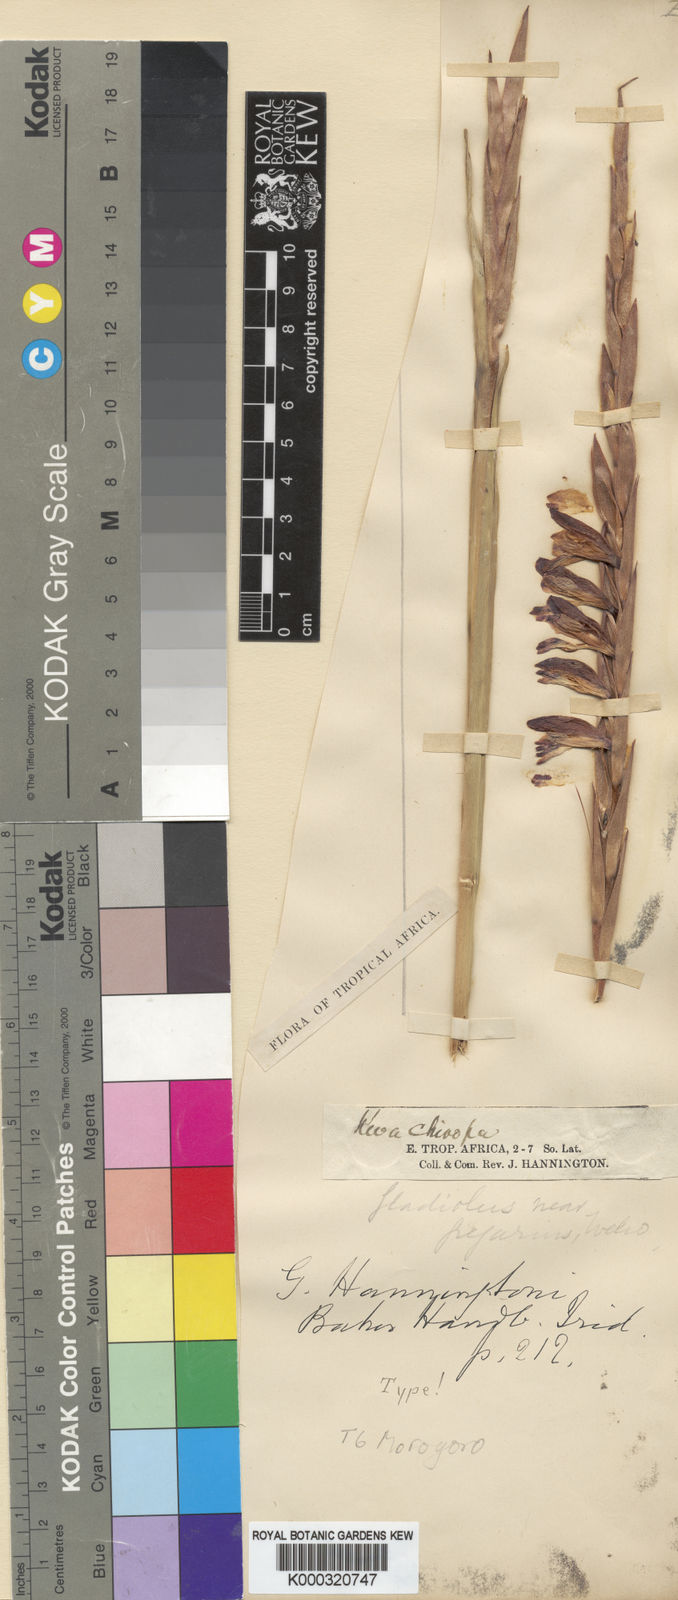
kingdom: Plantae
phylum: Tracheophyta
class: Liliopsida
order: Asparagales
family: Iridaceae
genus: Gladiolus
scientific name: Gladiolus gregarius
